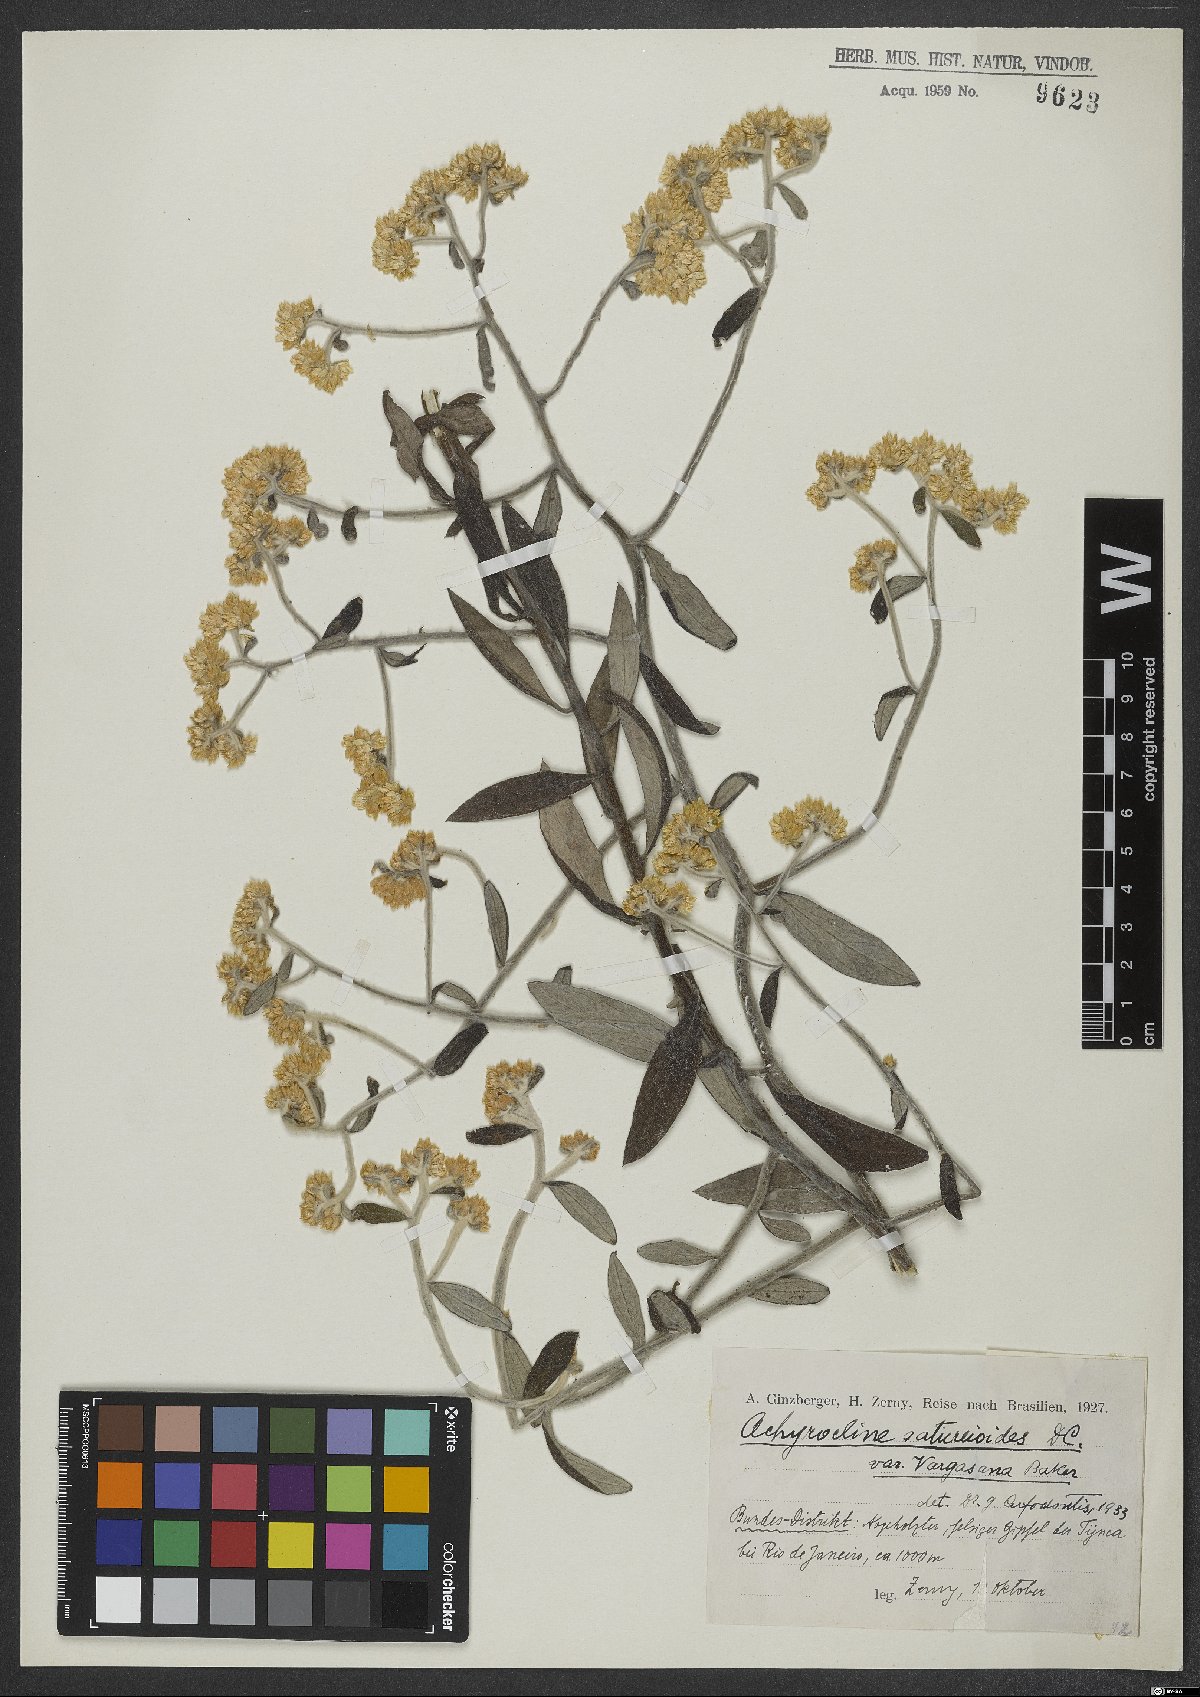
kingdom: Plantae
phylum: Tracheophyta
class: Magnoliopsida
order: Asterales
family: Asteraceae
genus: Achyrocline
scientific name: Achyrocline satureioides
